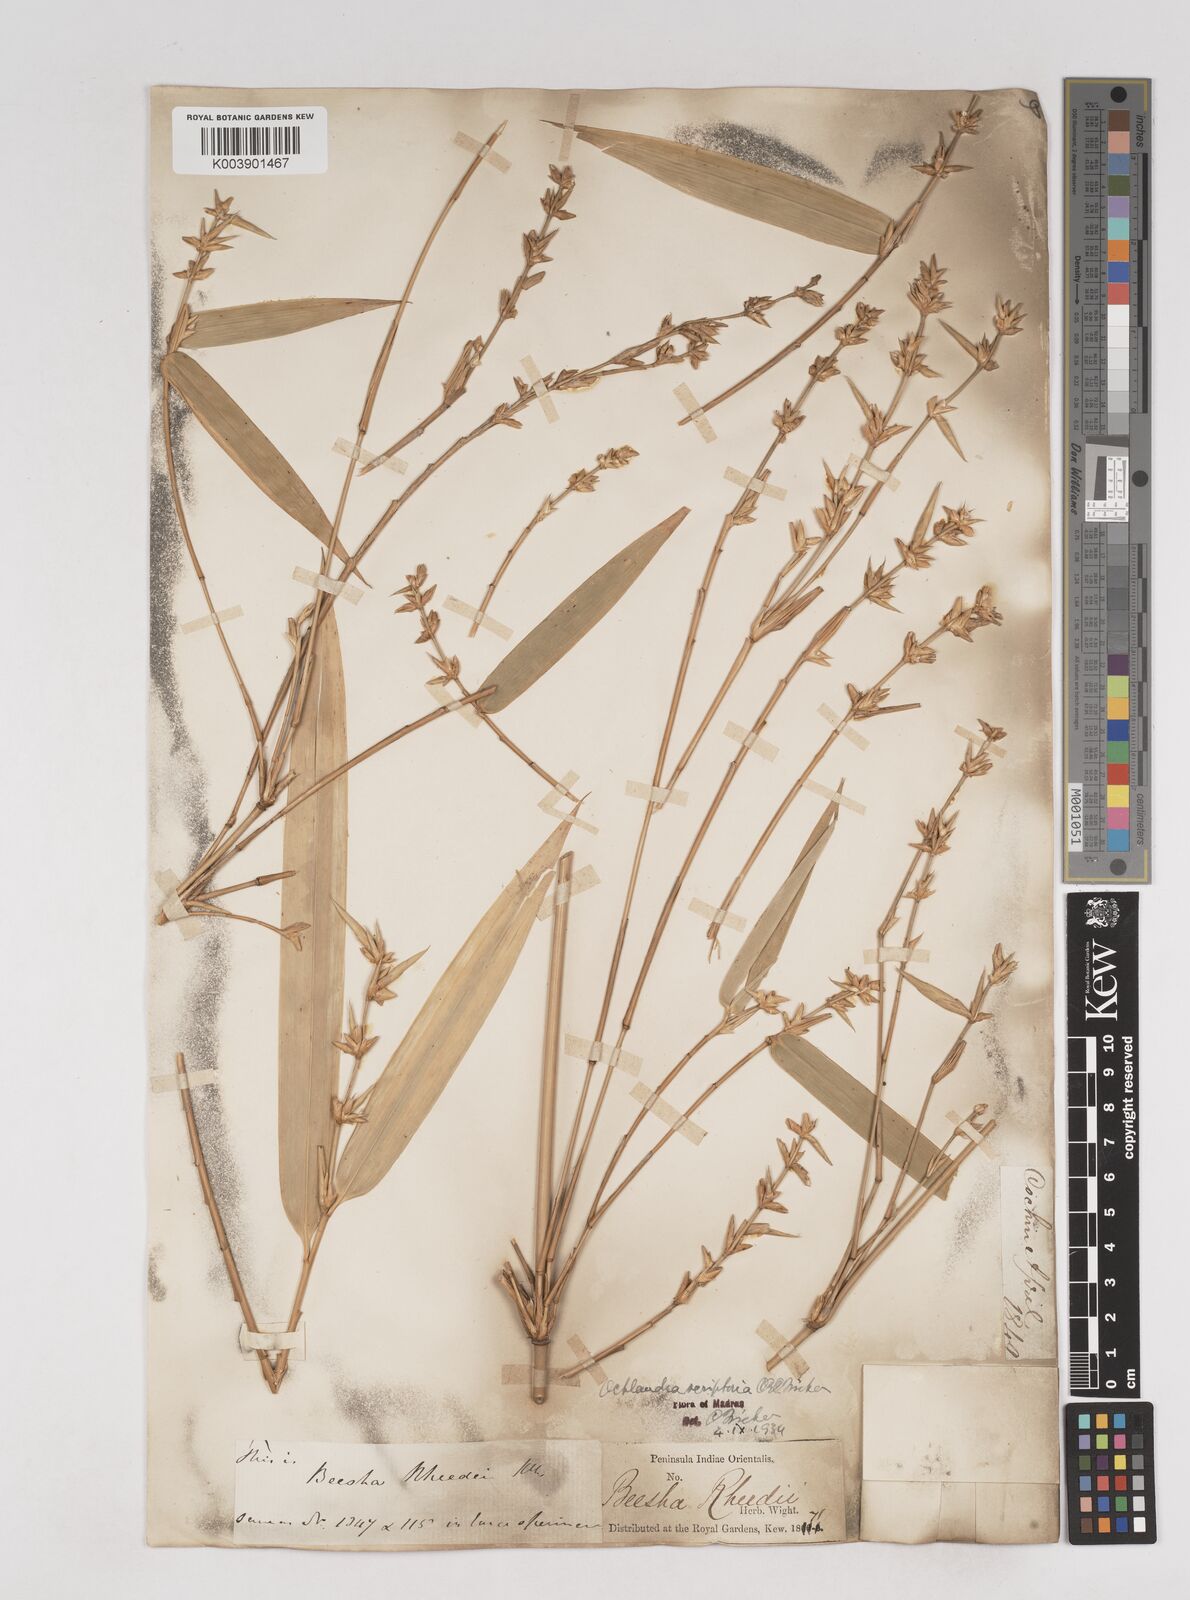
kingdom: Plantae
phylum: Tracheophyta
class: Liliopsida
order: Poales
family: Poaceae
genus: Ochlandra
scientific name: Ochlandra scriptoria
